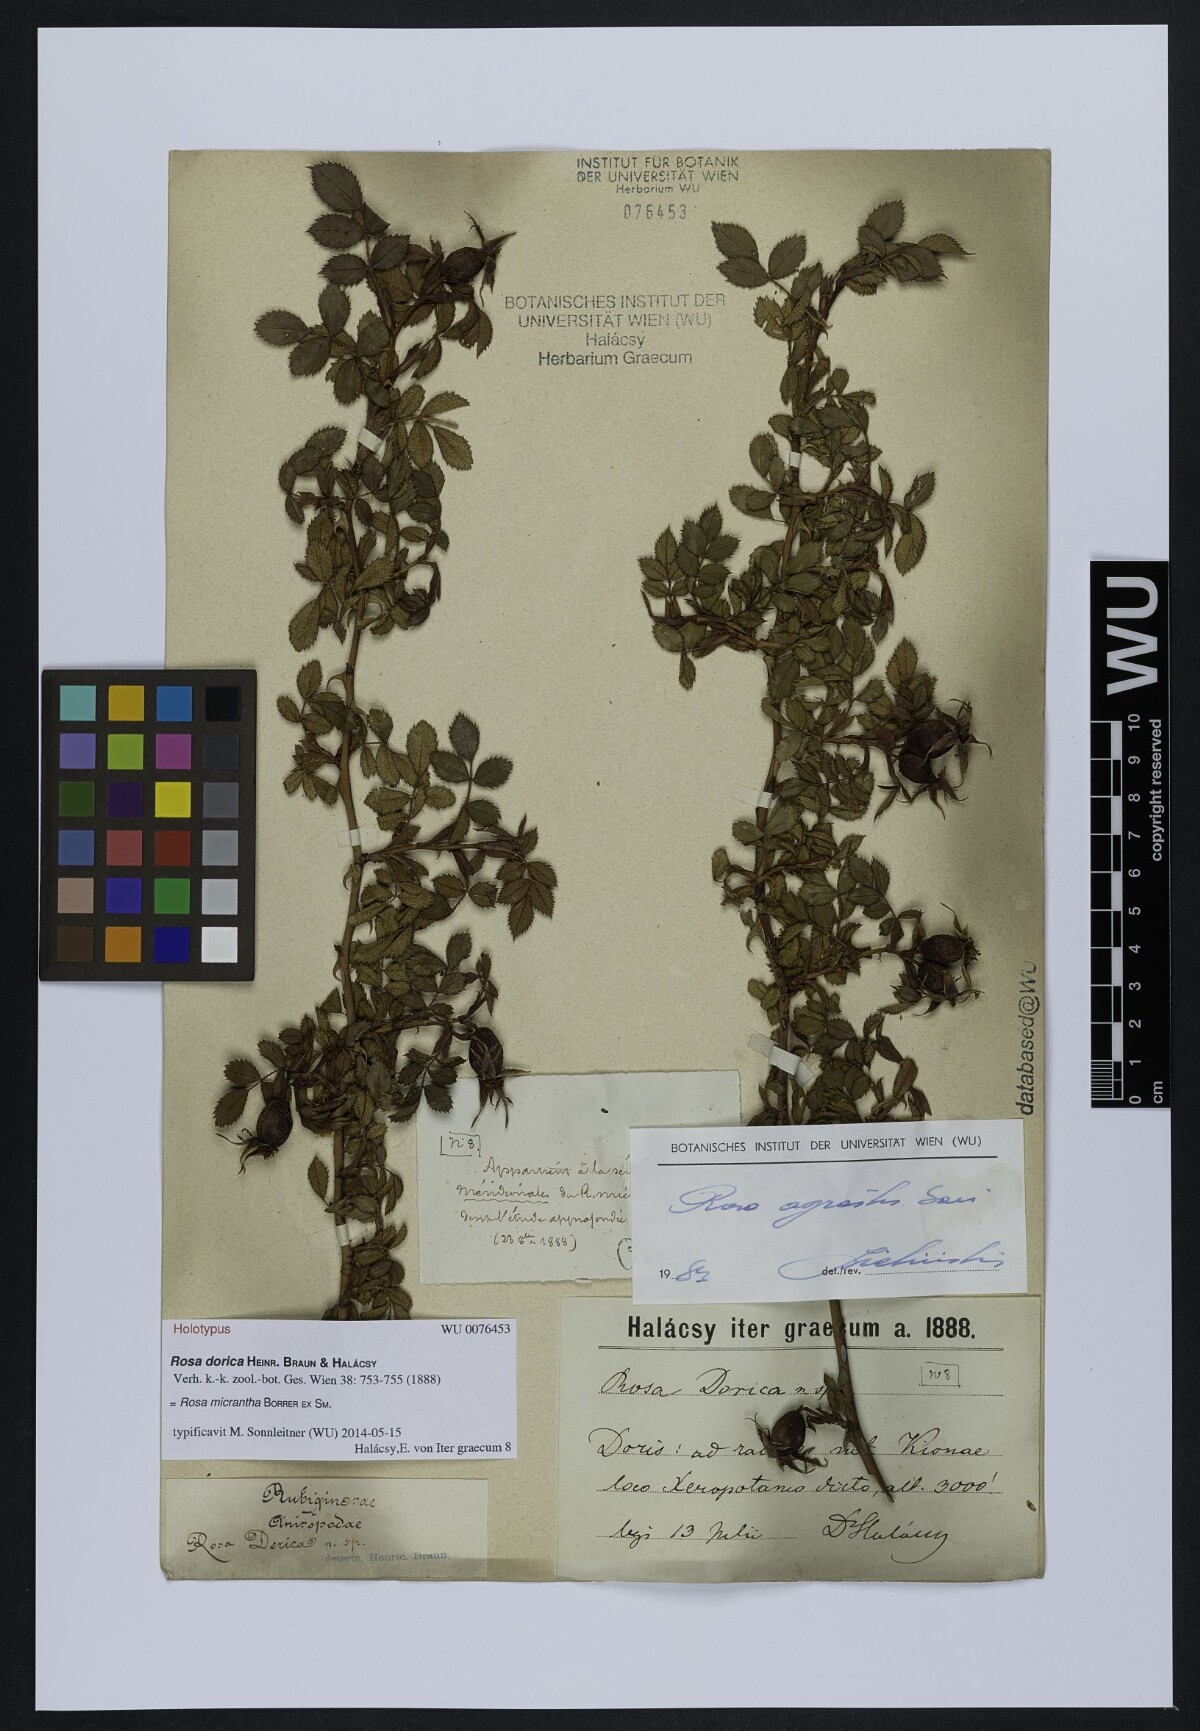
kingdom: Plantae
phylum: Tracheophyta
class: Magnoliopsida
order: Rosales
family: Rosaceae
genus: Rosa
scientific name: Rosa micrantha
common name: Small-flowered sweet-briar
